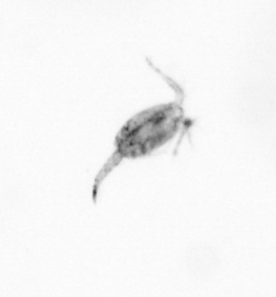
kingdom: Animalia
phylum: Arthropoda
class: Copepoda
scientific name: Copepoda
